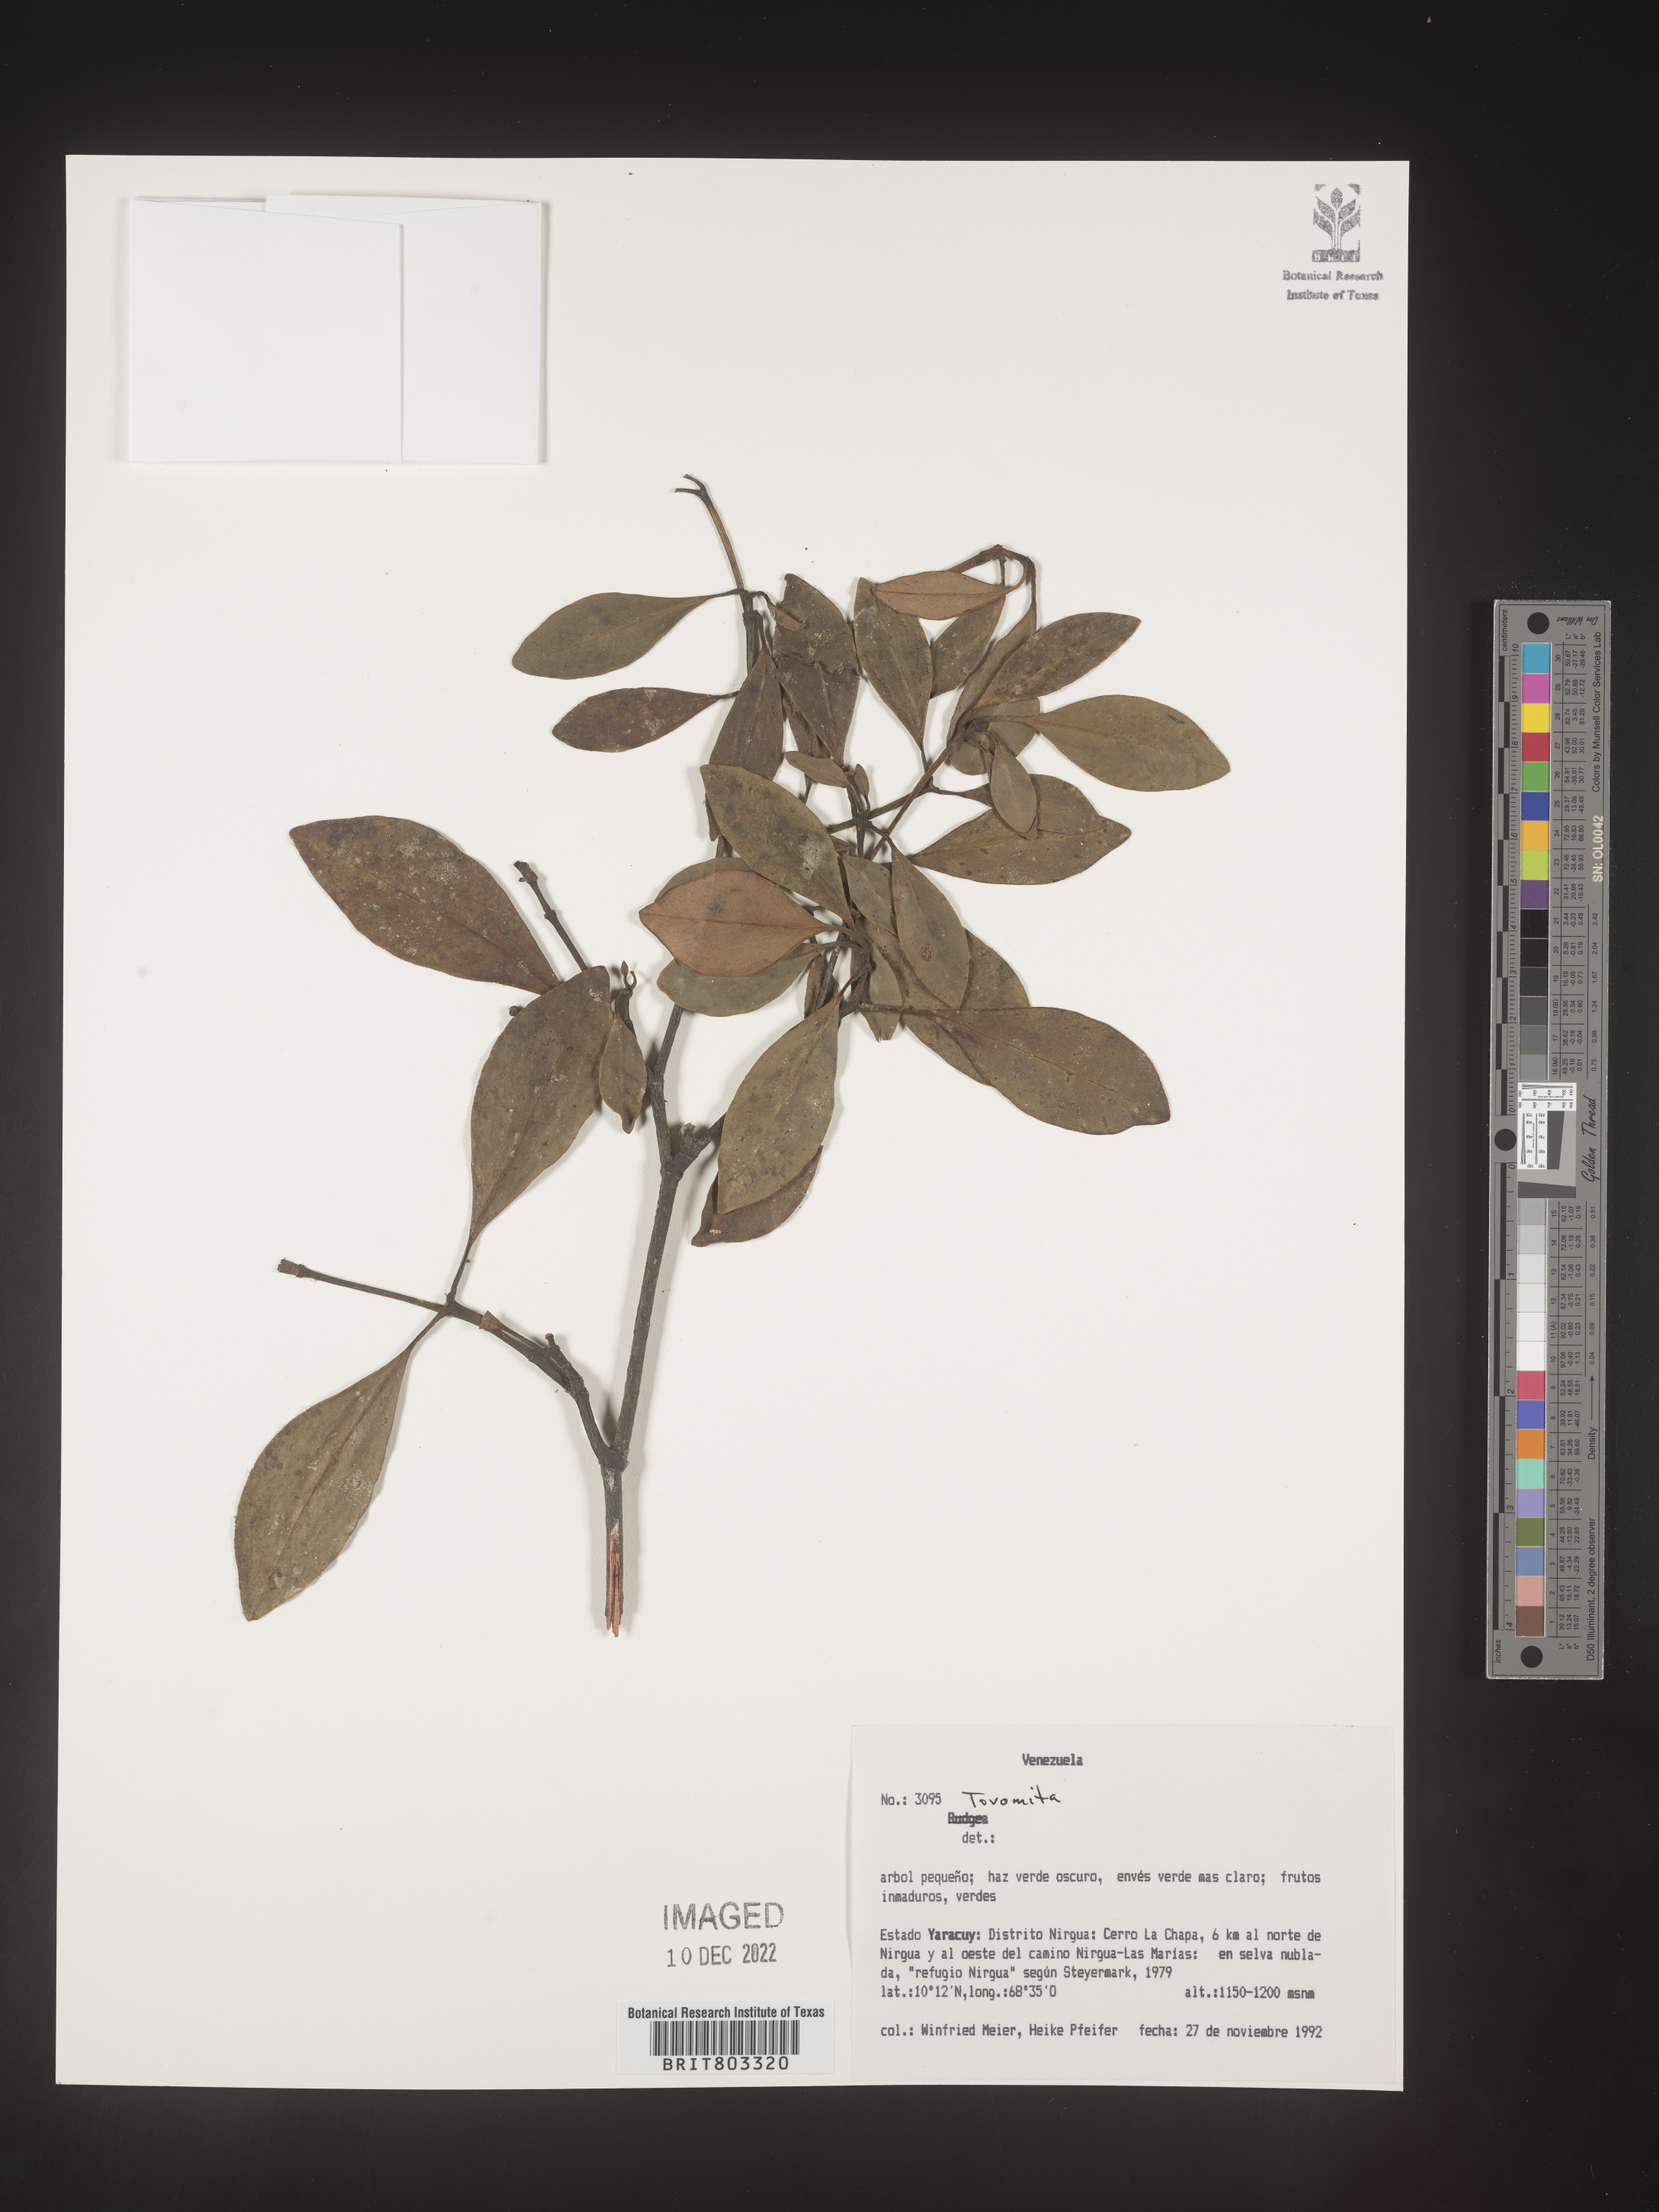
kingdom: Plantae
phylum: Tracheophyta
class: Magnoliopsida
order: Malpighiales
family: Clusiaceae
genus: Tovomita
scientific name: Tovomita
